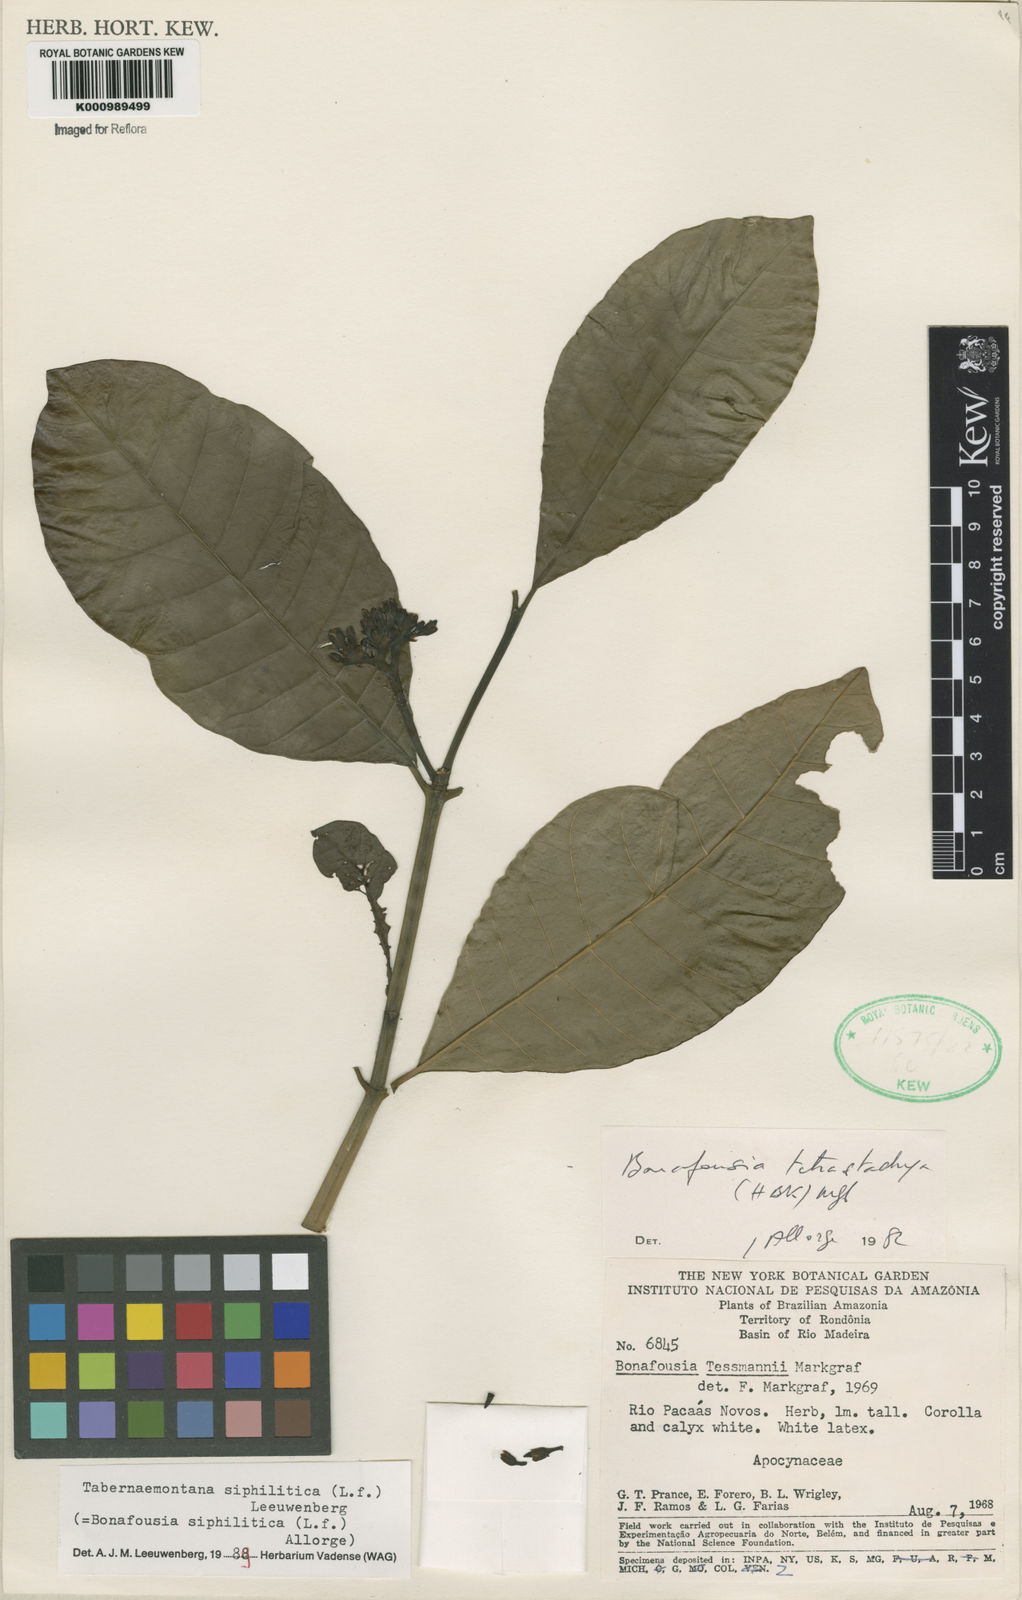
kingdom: Plantae
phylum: Tracheophyta
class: Magnoliopsida
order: Gentianales
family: Apocynaceae
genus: Tabernaemontana
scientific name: Tabernaemontana siphilitica
